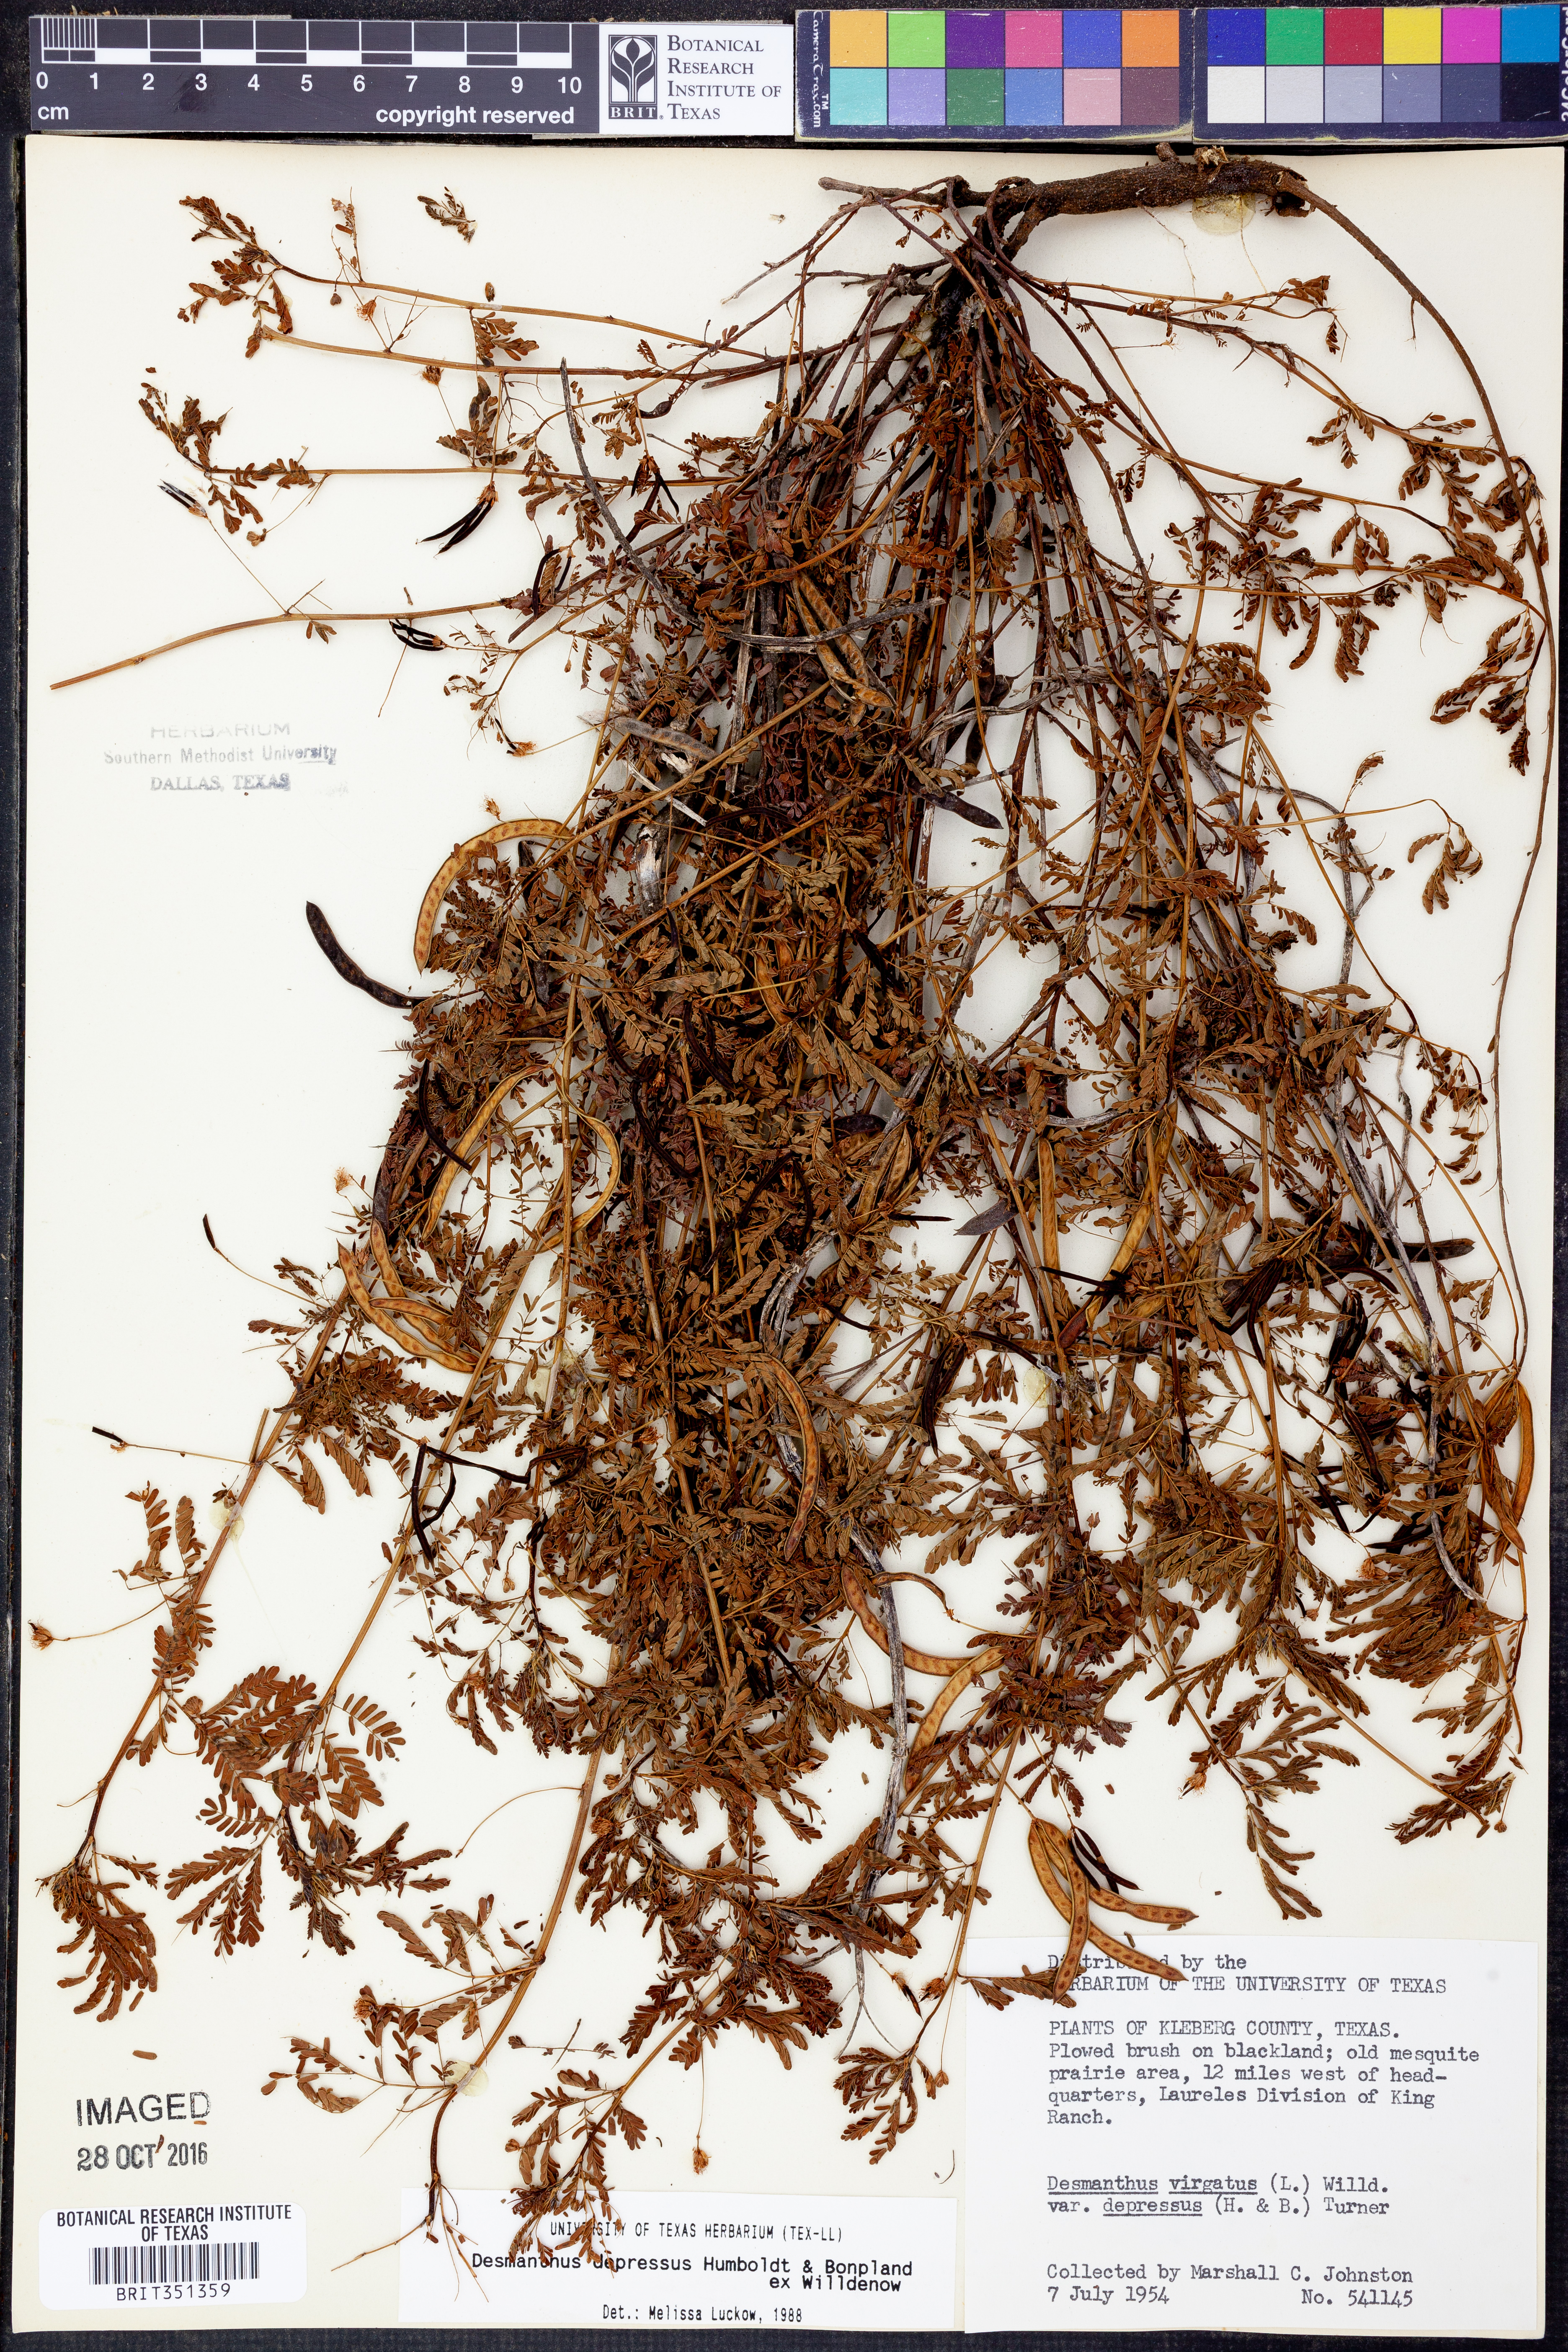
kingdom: Plantae
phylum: Tracheophyta
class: Magnoliopsida
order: Fabales
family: Fabaceae
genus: Desmanthus
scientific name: Desmanthus virgatus
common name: Wild tantan
